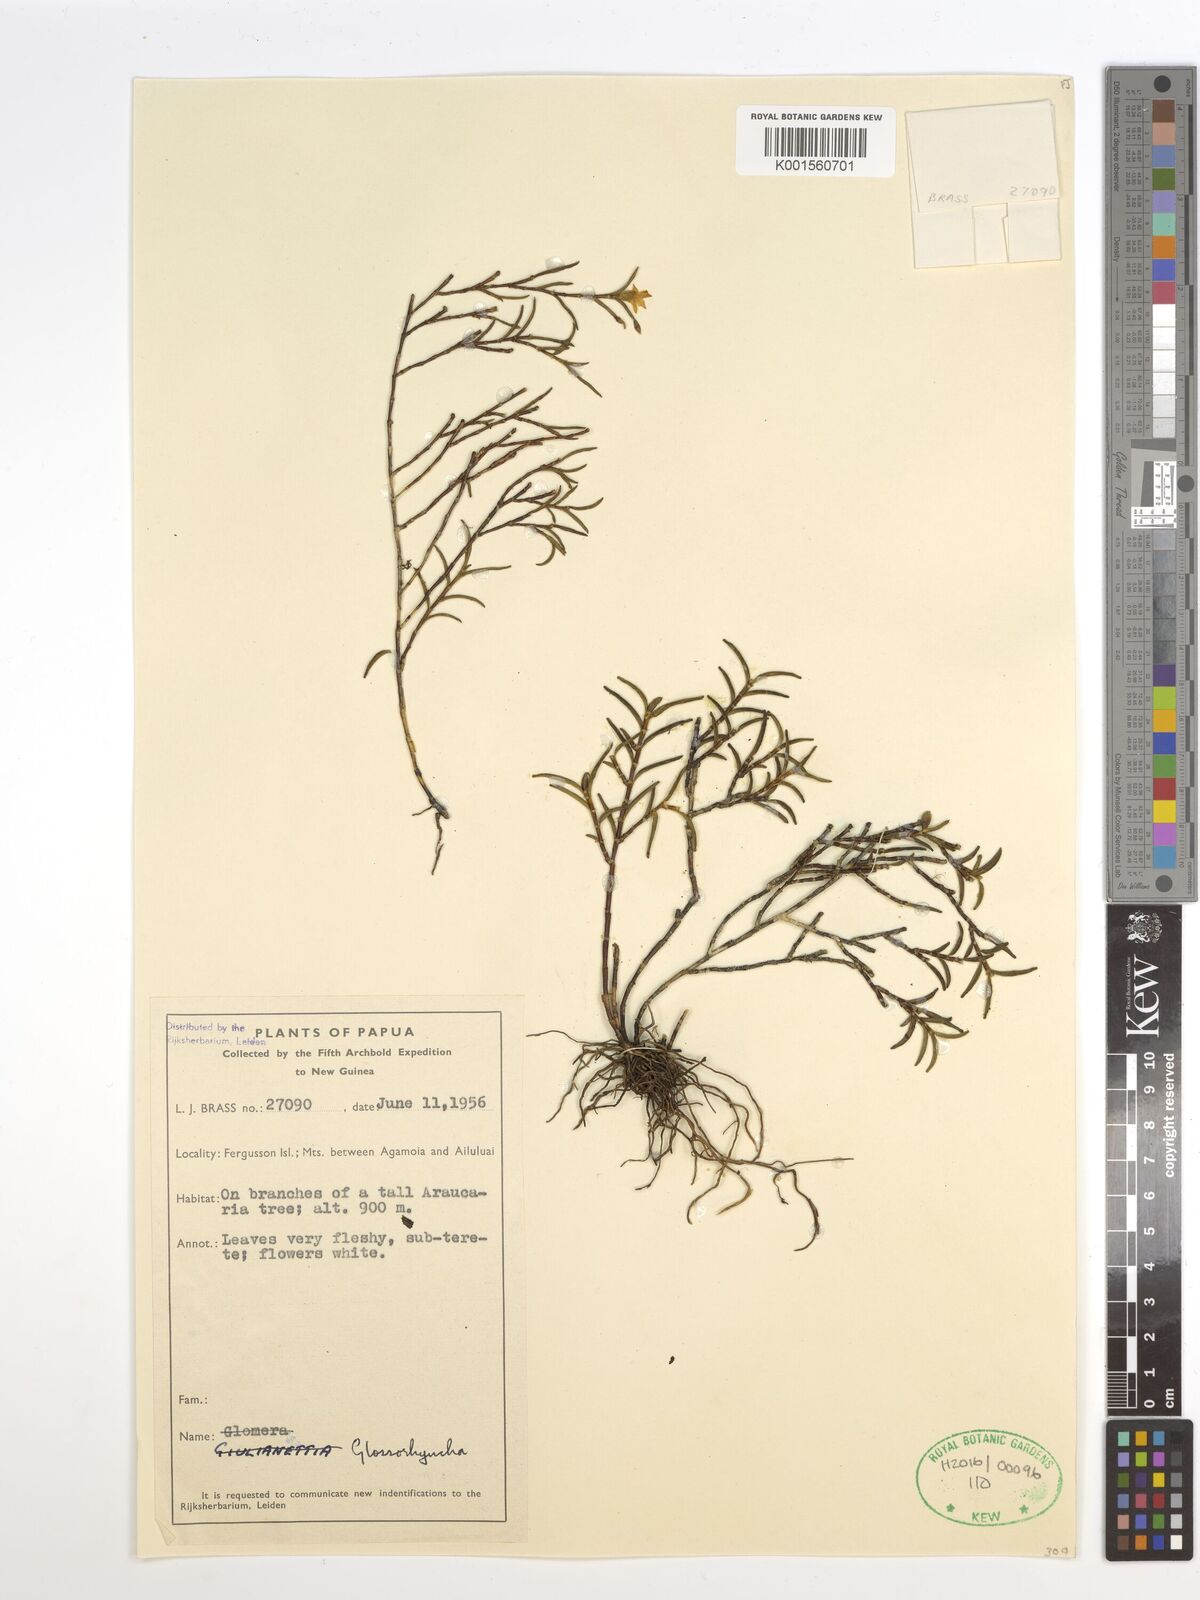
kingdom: Plantae
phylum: Tracheophyta
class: Liliopsida
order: Asparagales
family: Orchidaceae
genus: Glomera
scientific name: Glomera
